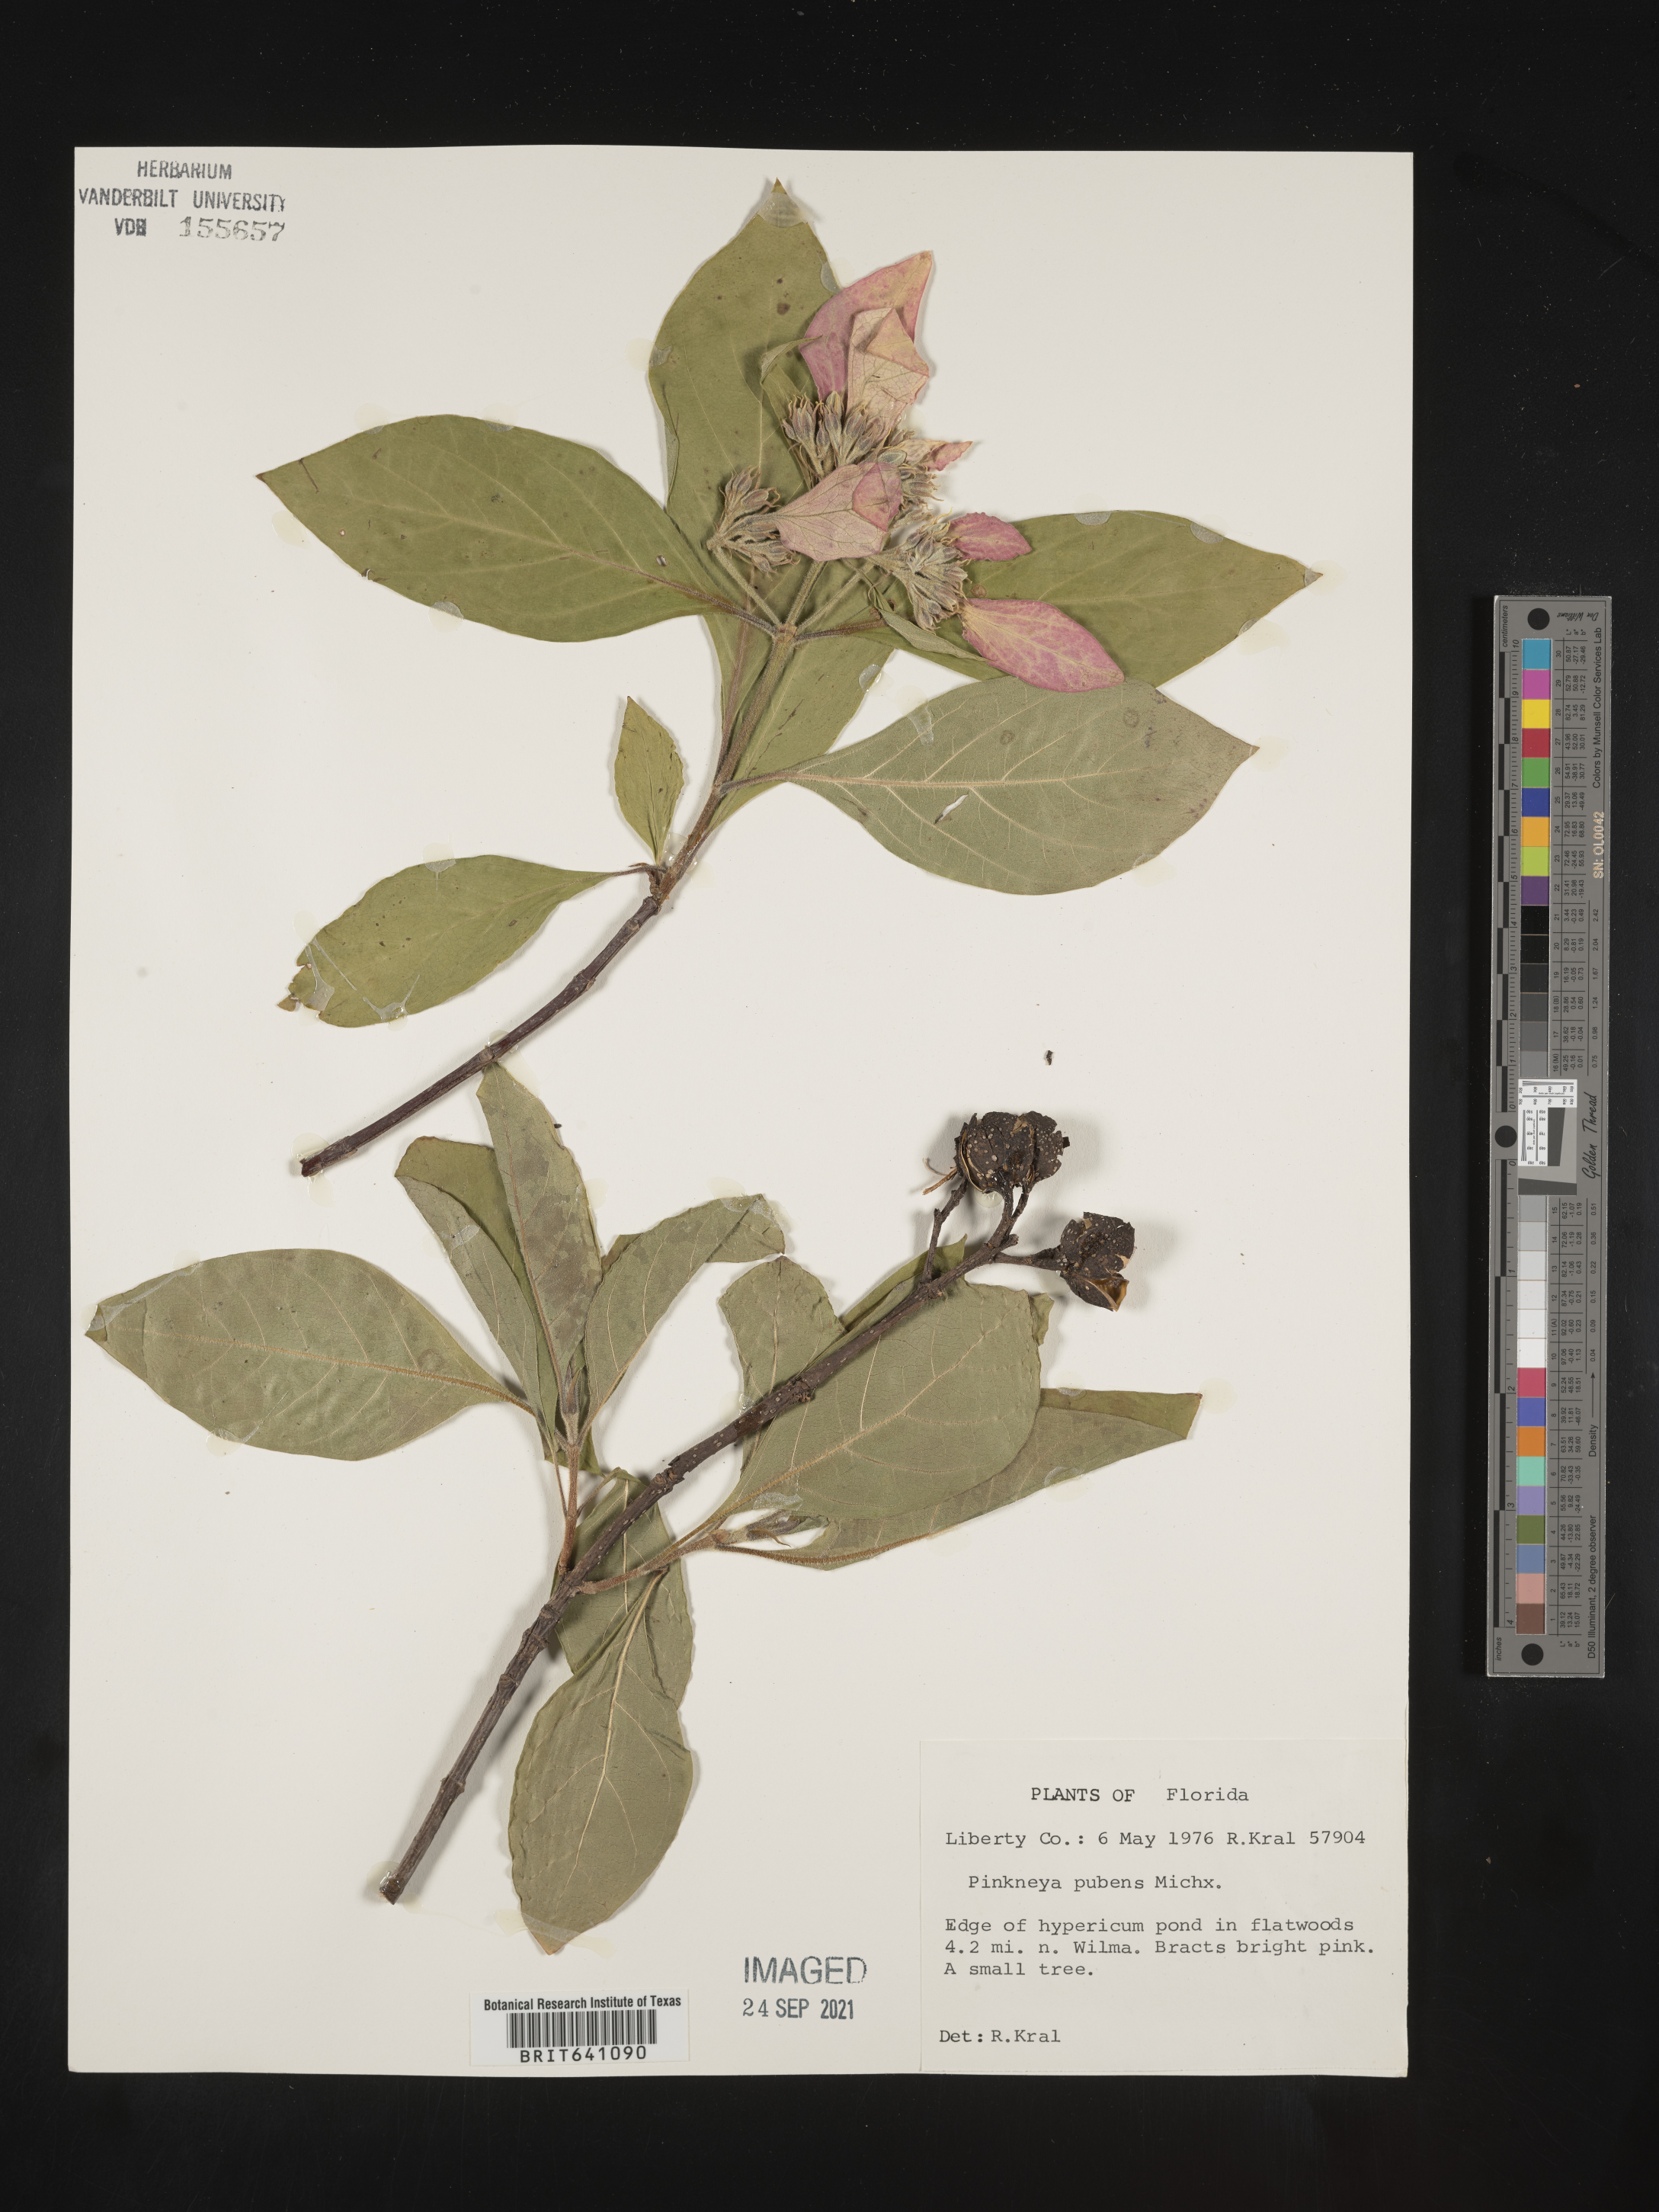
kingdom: Plantae
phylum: Tracheophyta
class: Magnoliopsida
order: Gentianales
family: Rubiaceae
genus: Pinckneya
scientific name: Pinckneya pubens
